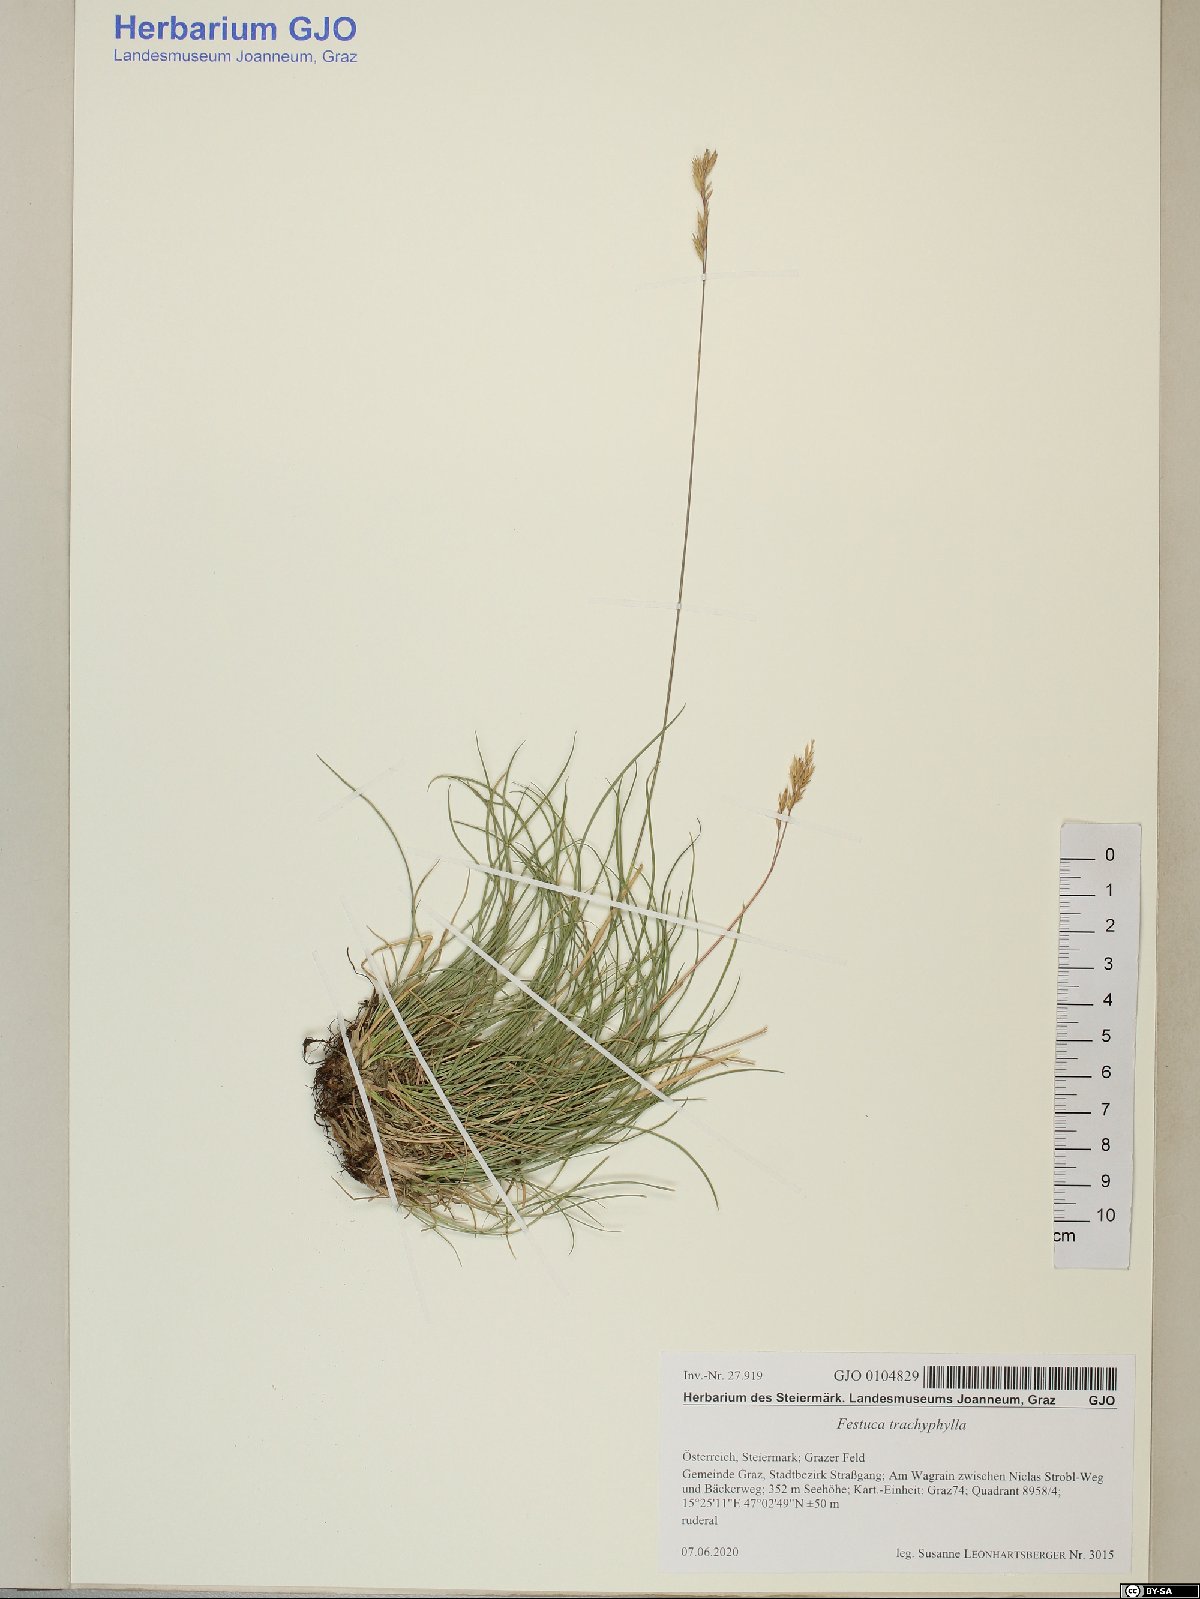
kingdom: Plantae
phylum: Tracheophyta
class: Liliopsida
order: Poales
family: Poaceae
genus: Festuca
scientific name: Festuca trachyphylla
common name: Hard fescue
